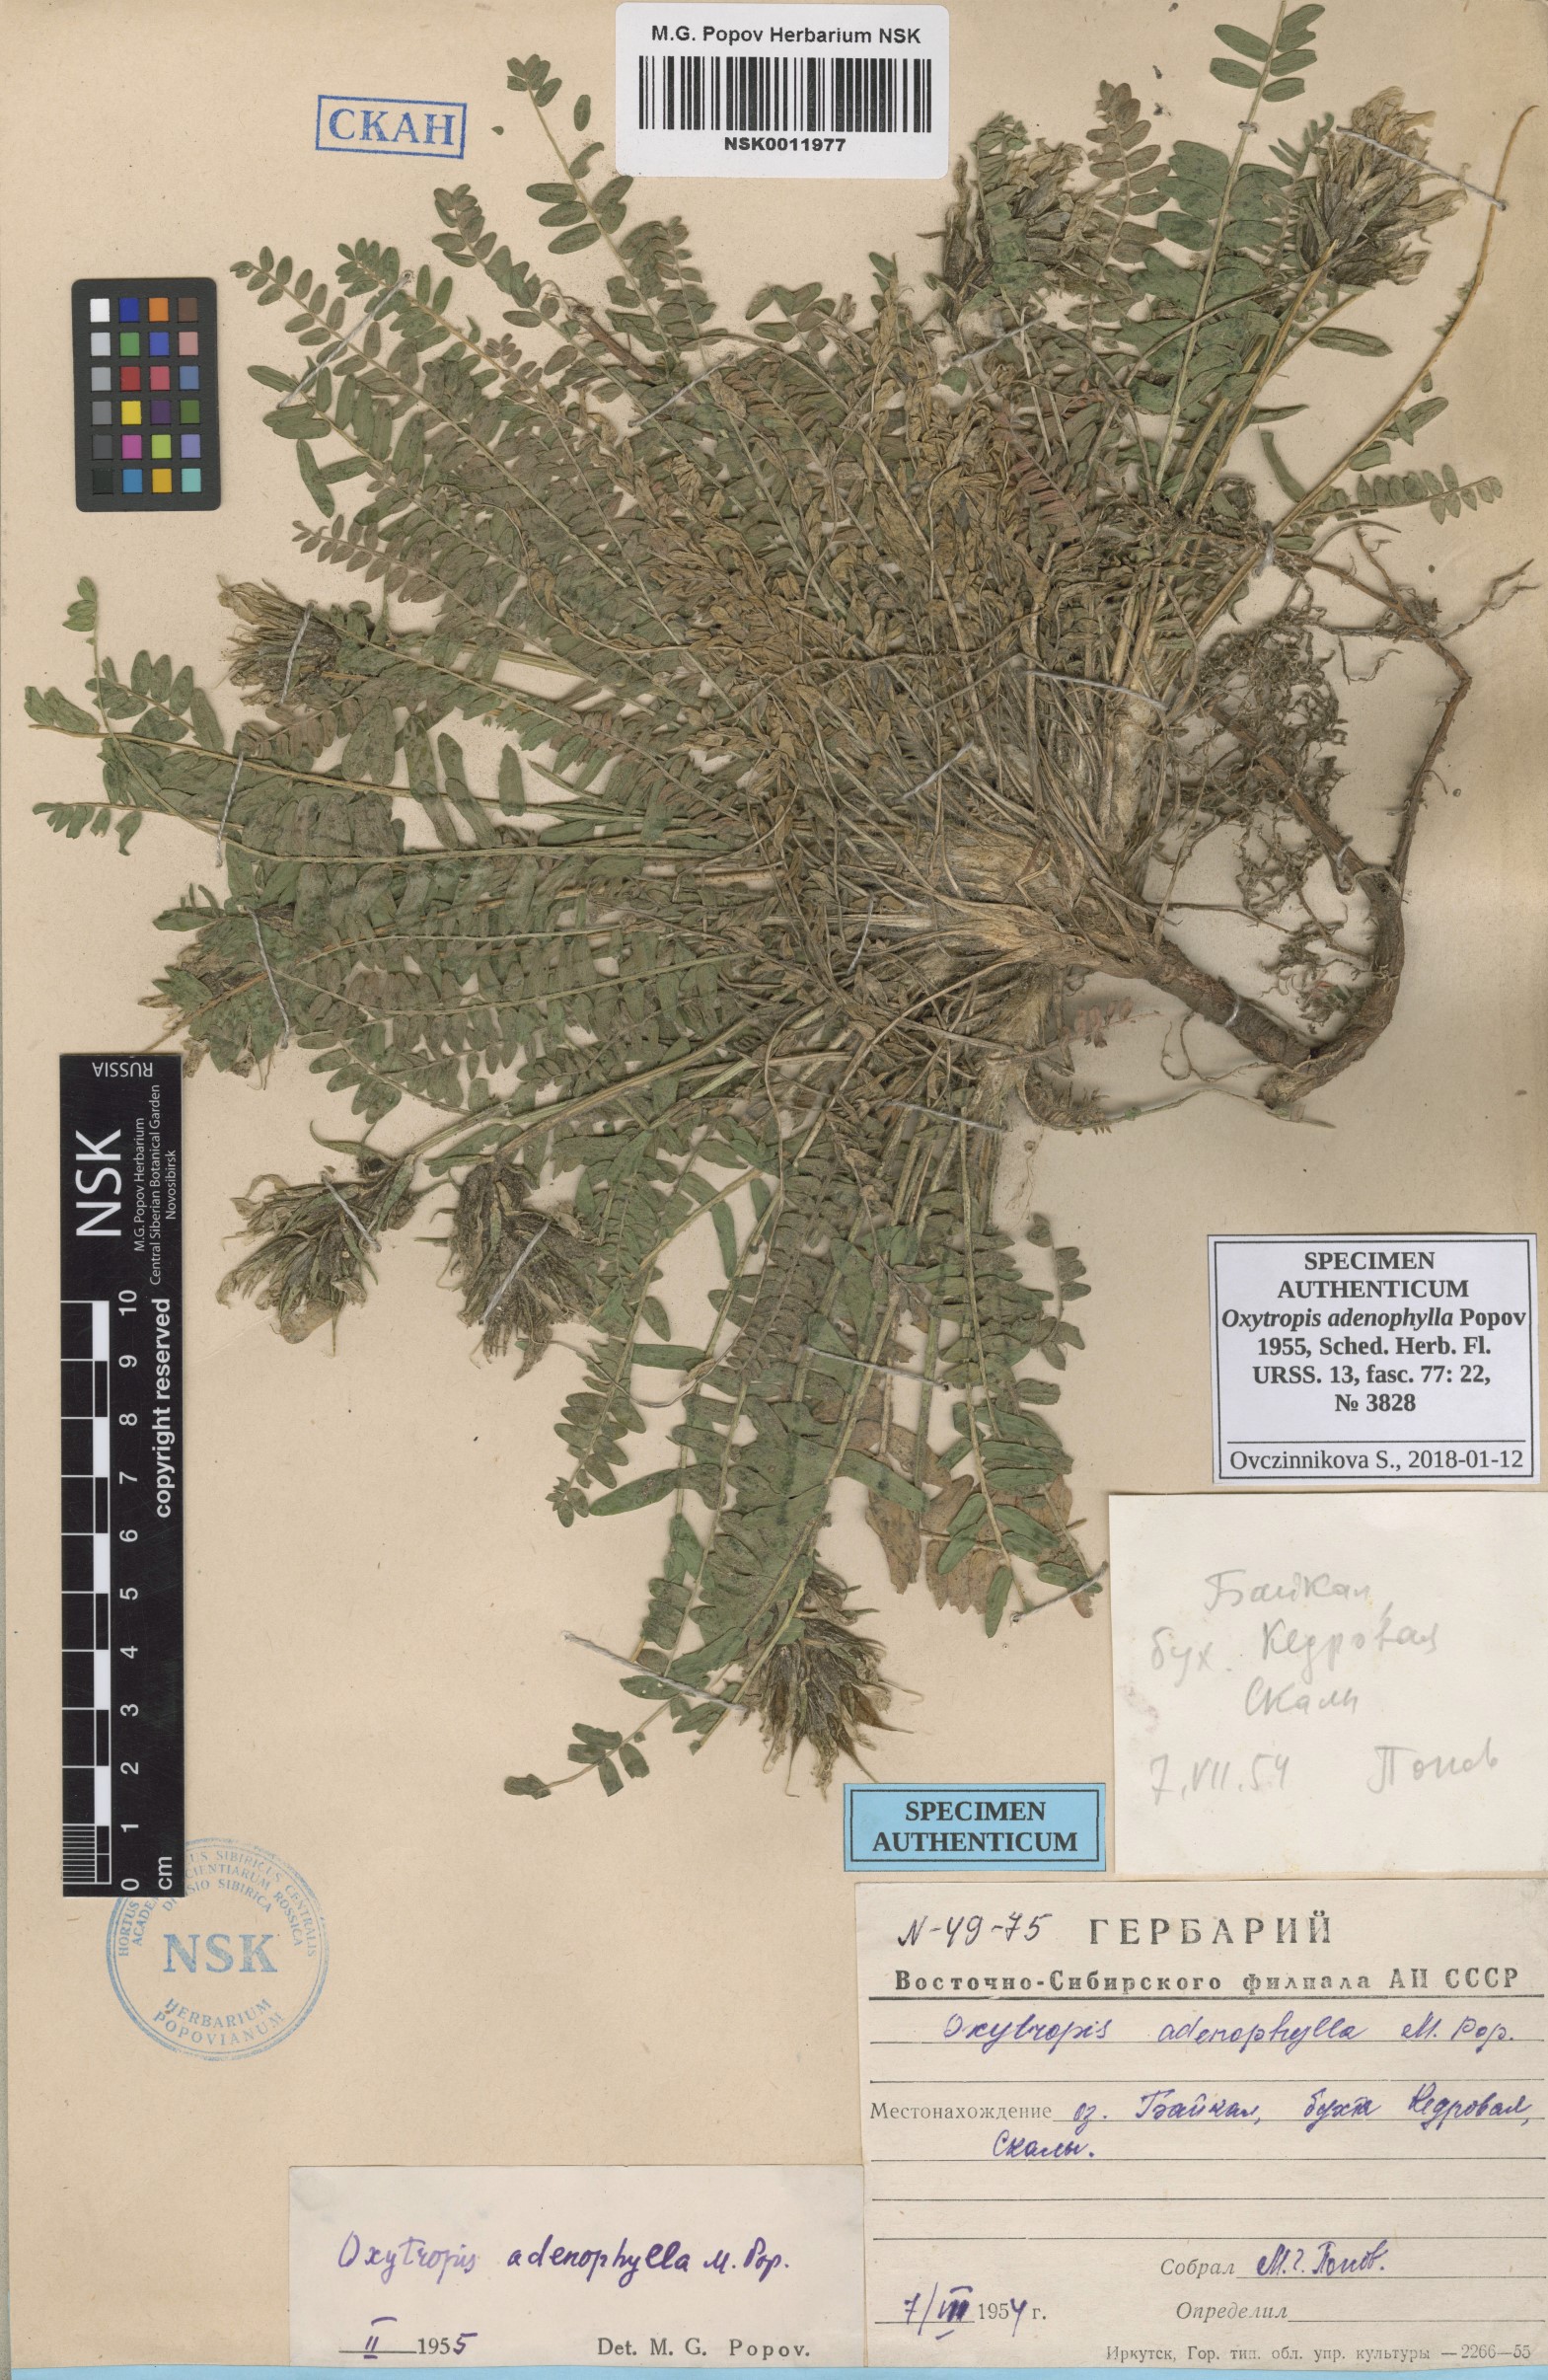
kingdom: Plantae
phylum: Tracheophyta
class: Magnoliopsida
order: Fabales
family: Fabaceae
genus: Oxytropis
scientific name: Oxytropis adenophylla
